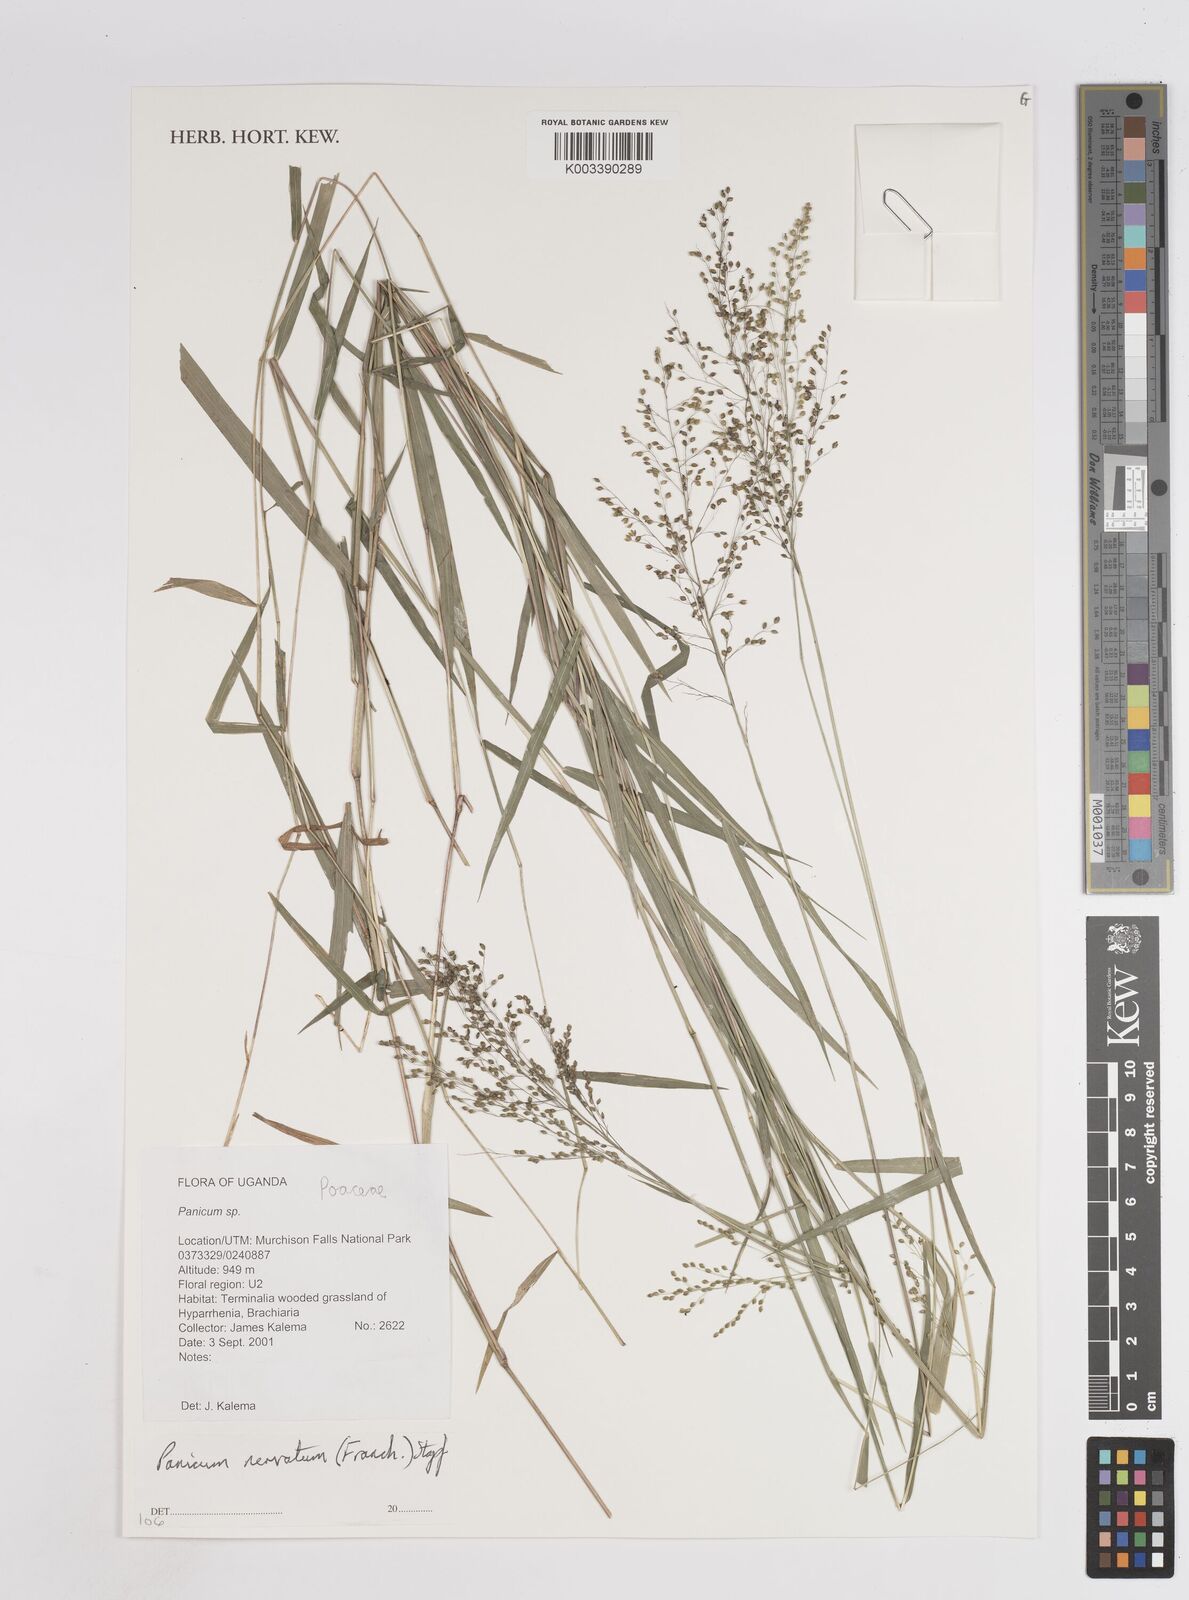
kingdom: Plantae
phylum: Tracheophyta
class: Liliopsida
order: Poales
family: Poaceae
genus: Trichanthecium
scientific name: Trichanthecium nervatum
